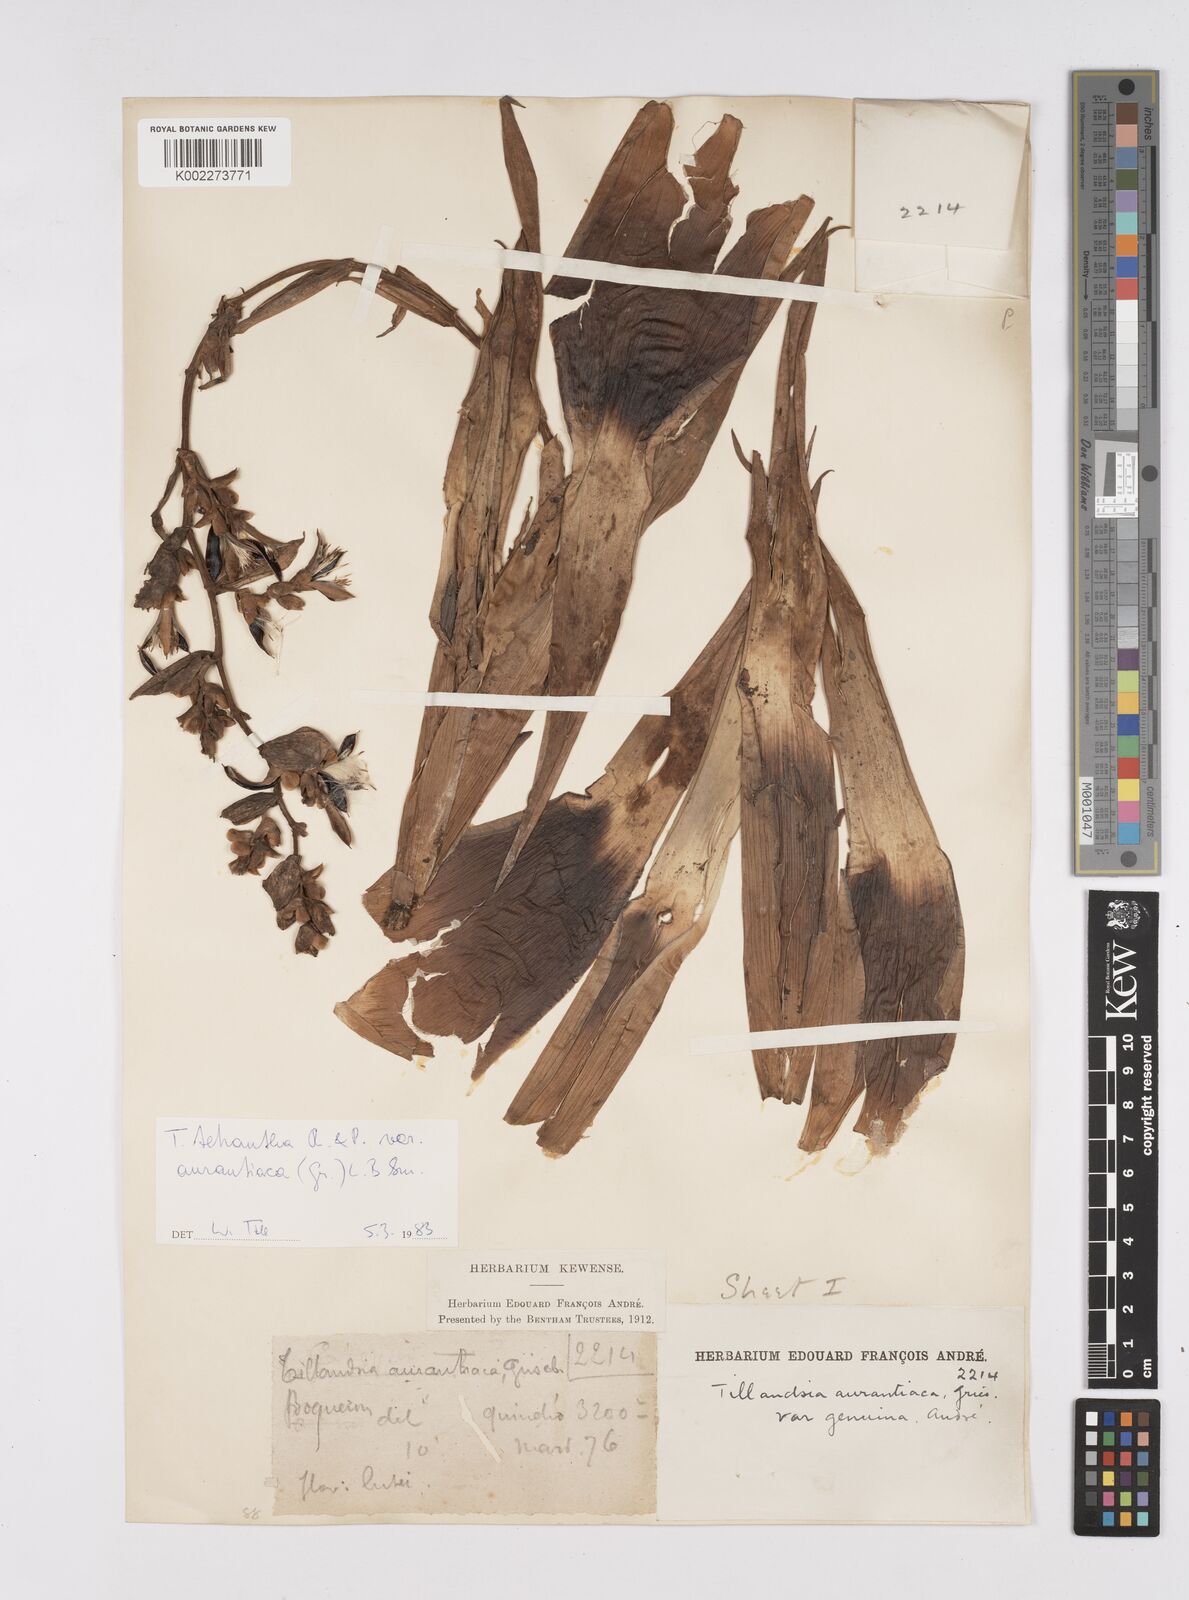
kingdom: Plantae
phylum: Tracheophyta
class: Liliopsida
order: Poales
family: Bromeliaceae
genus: Racinaea
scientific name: Racinaea tetrantha
